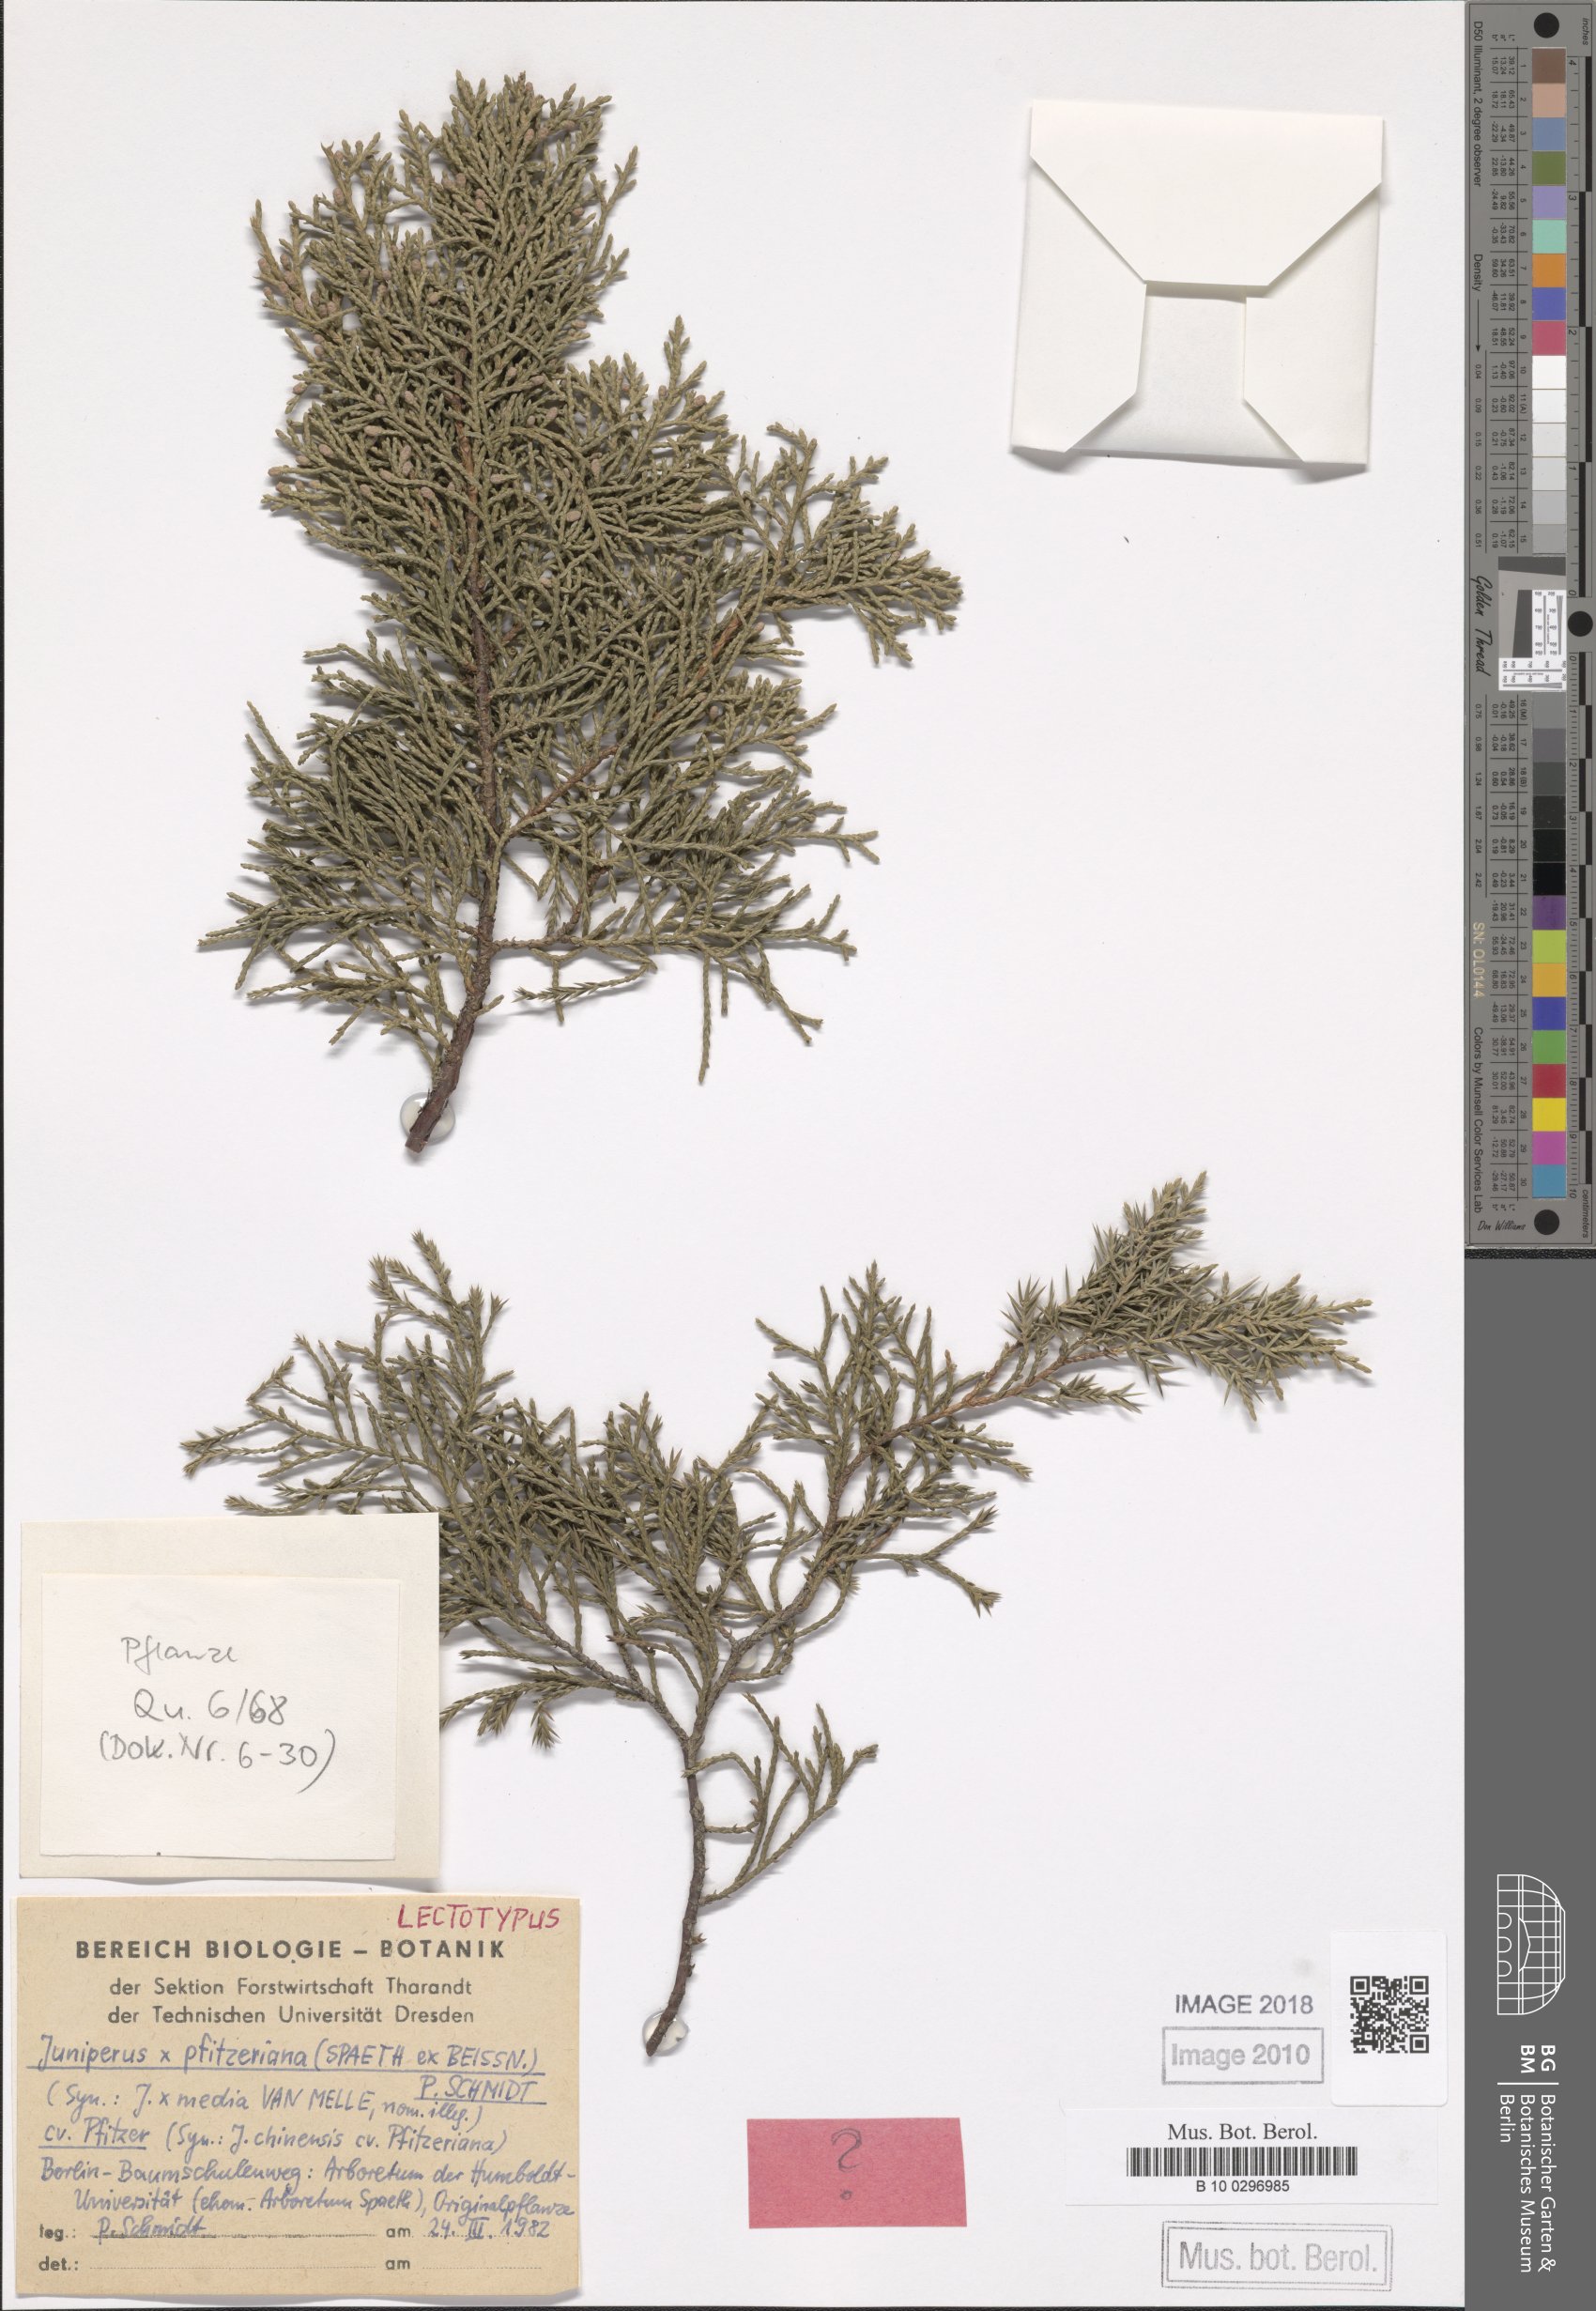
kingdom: Plantae
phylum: Tracheophyta
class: Pinopsida
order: Pinales
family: Cupressaceae
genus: Juniperus
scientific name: Juniperus pfitzeriana
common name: Pfitzer juniper
